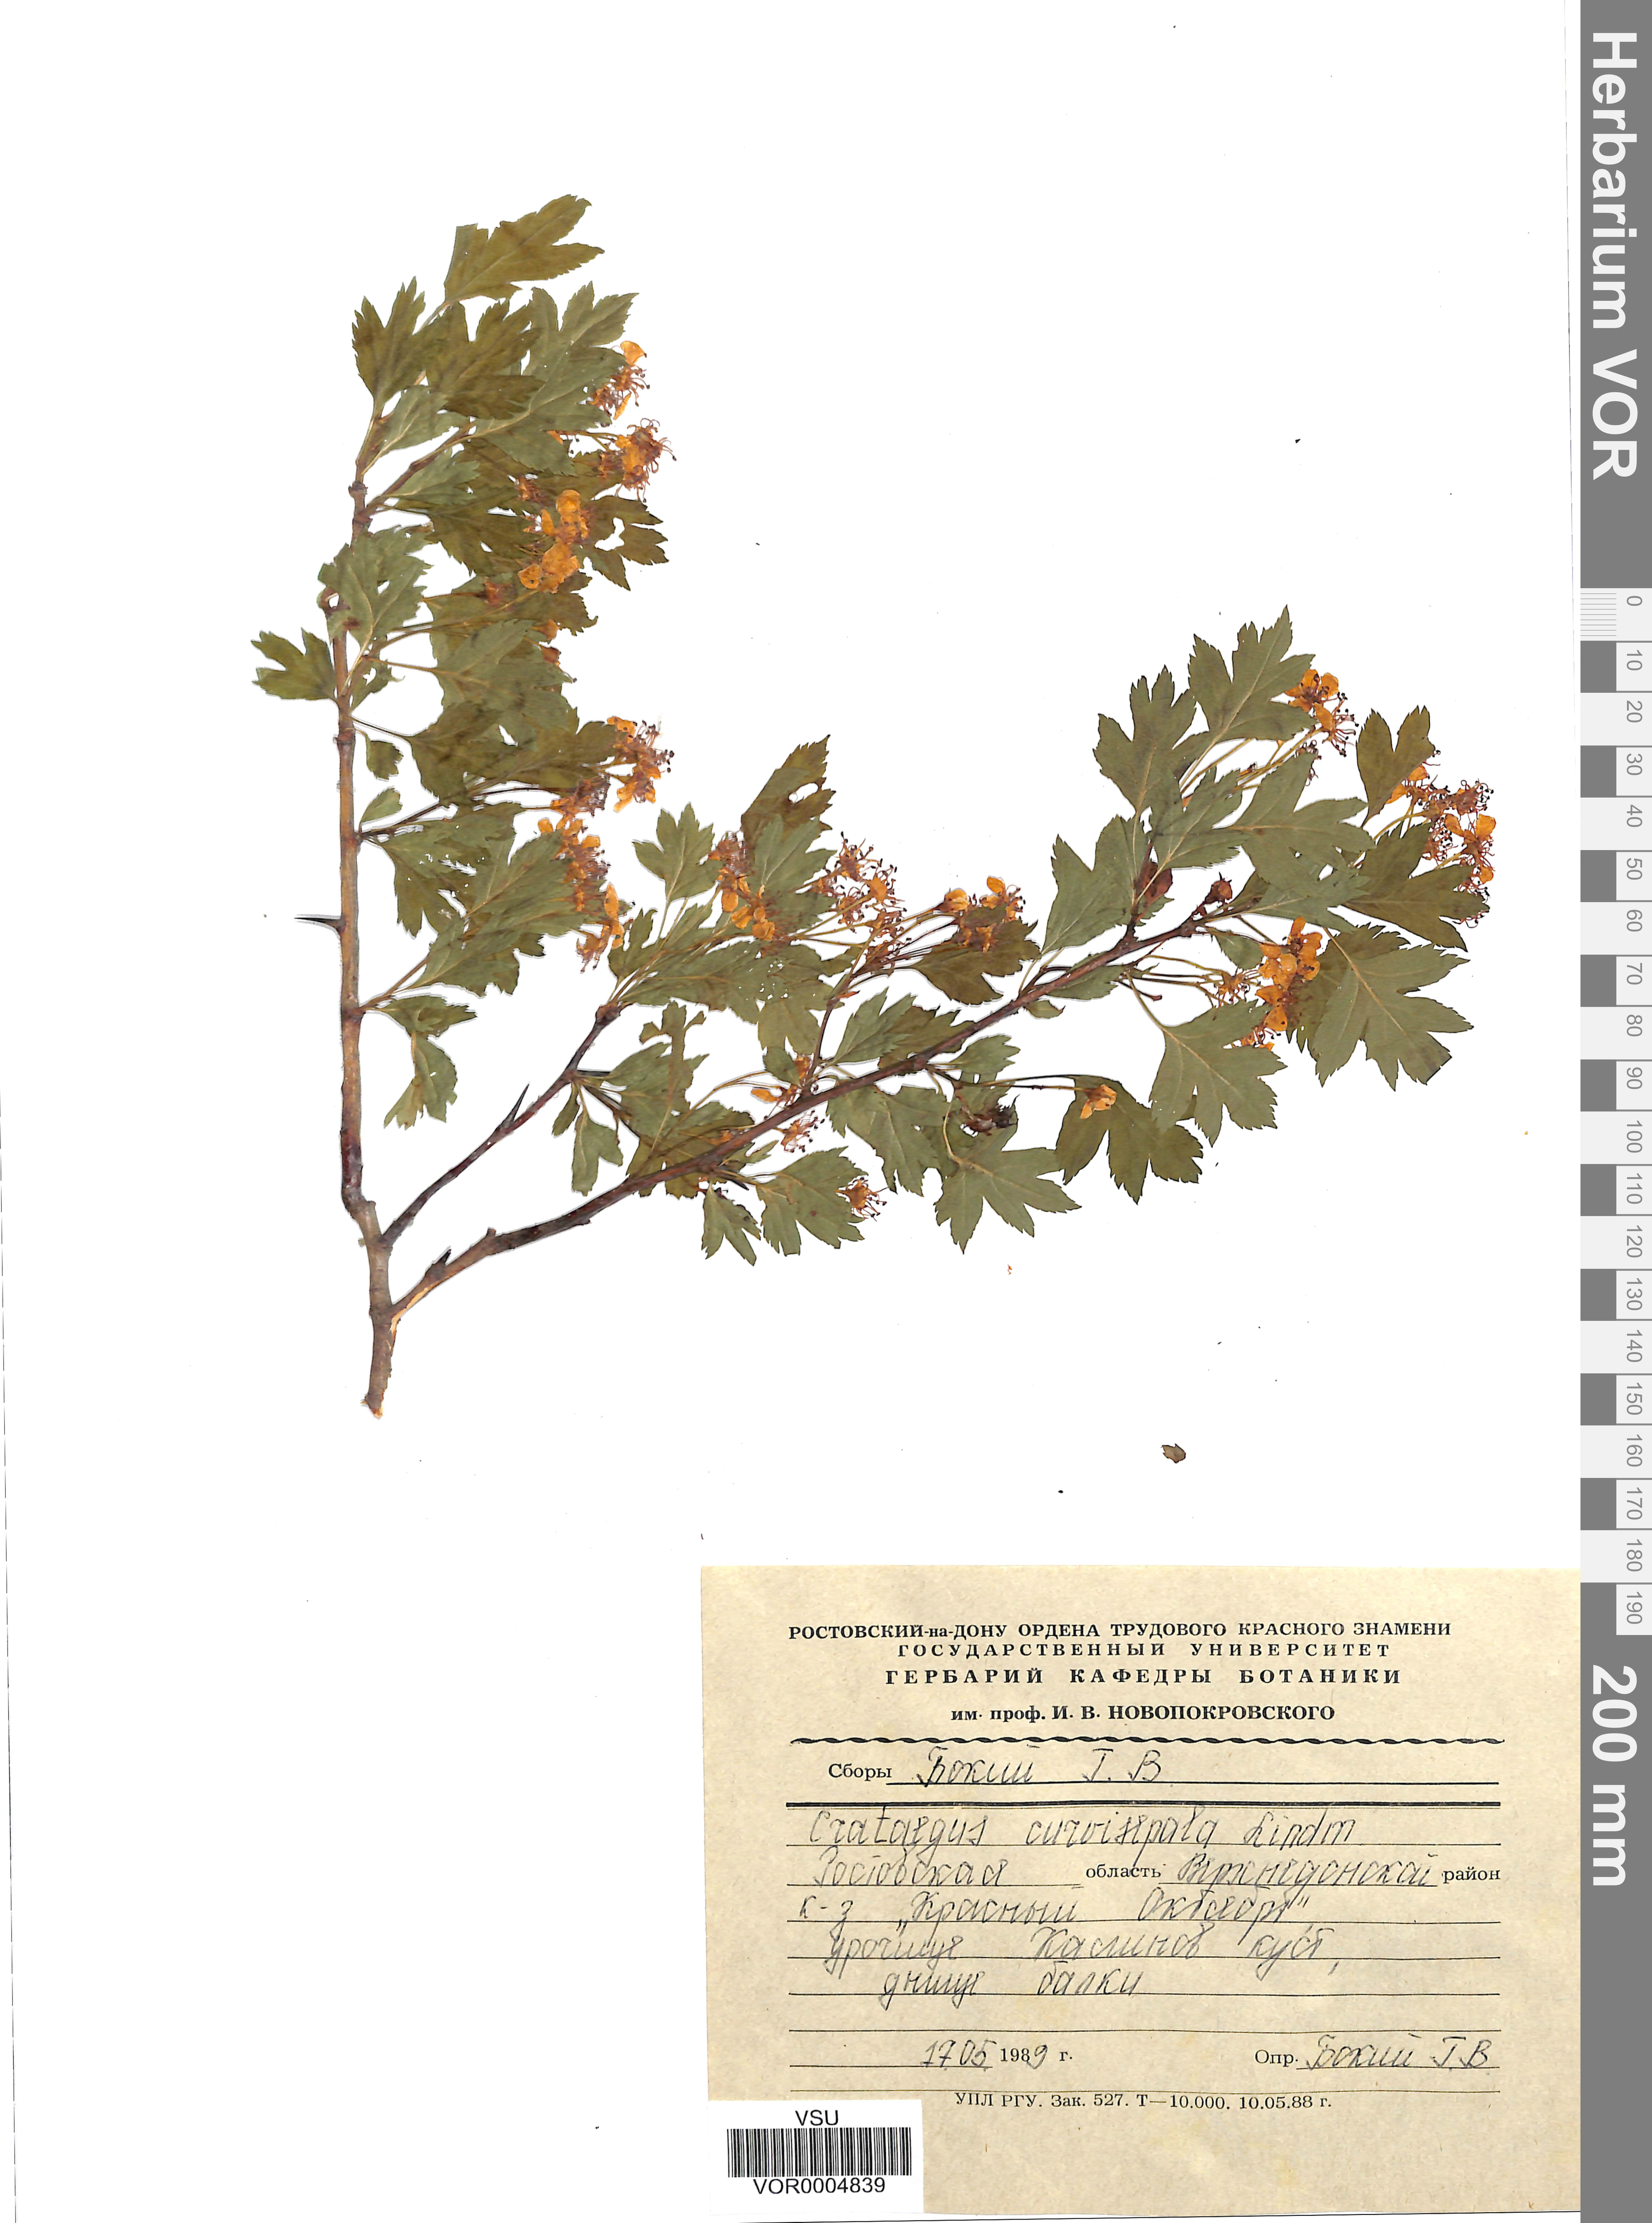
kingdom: Plantae
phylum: Tracheophyta
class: Magnoliopsida
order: Rosales
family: Rosaceae
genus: Crataegus
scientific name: Crataegus praemonticola
